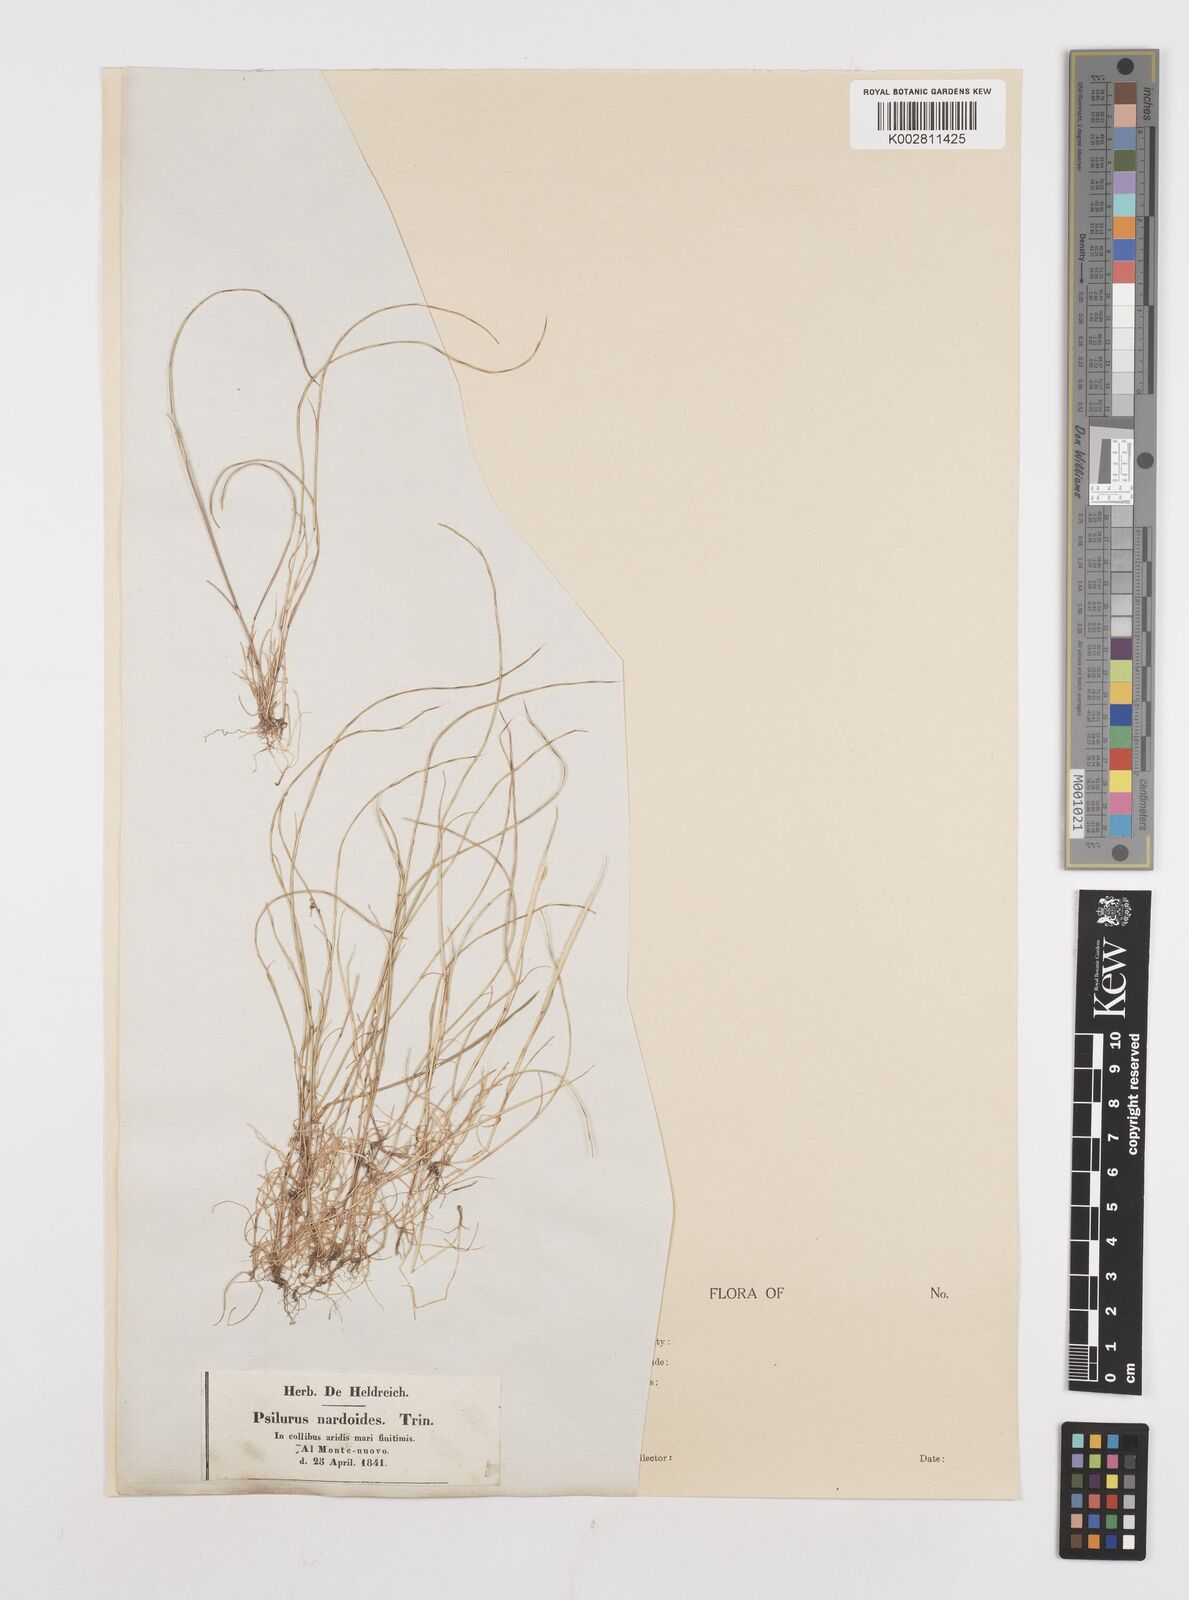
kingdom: Plantae
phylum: Tracheophyta
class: Liliopsida
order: Poales
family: Poaceae
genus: Festuca
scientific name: Festuca incurva
